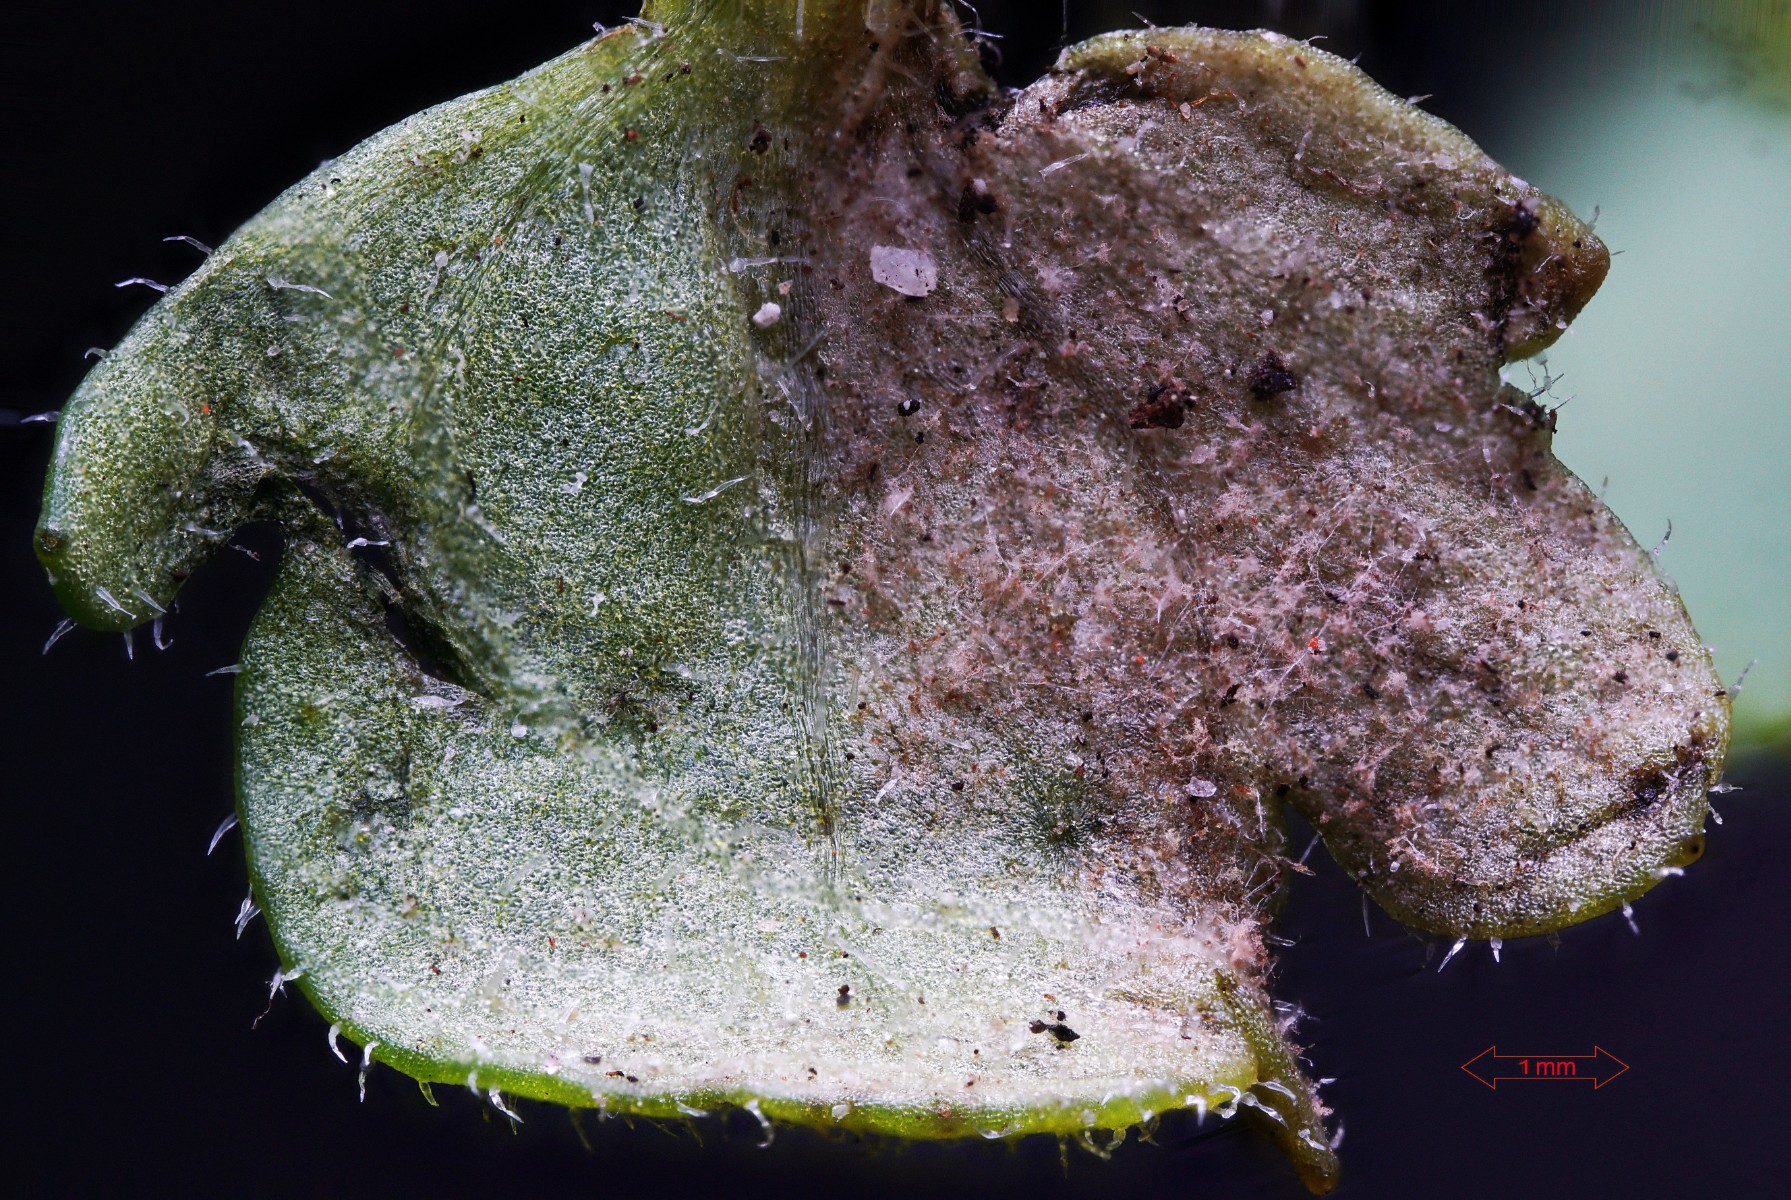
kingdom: Chromista
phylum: Oomycota
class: Peronosporea
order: Peronosporales
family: Peronosporaceae
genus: Peronospora
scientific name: Peronospora arvensis
